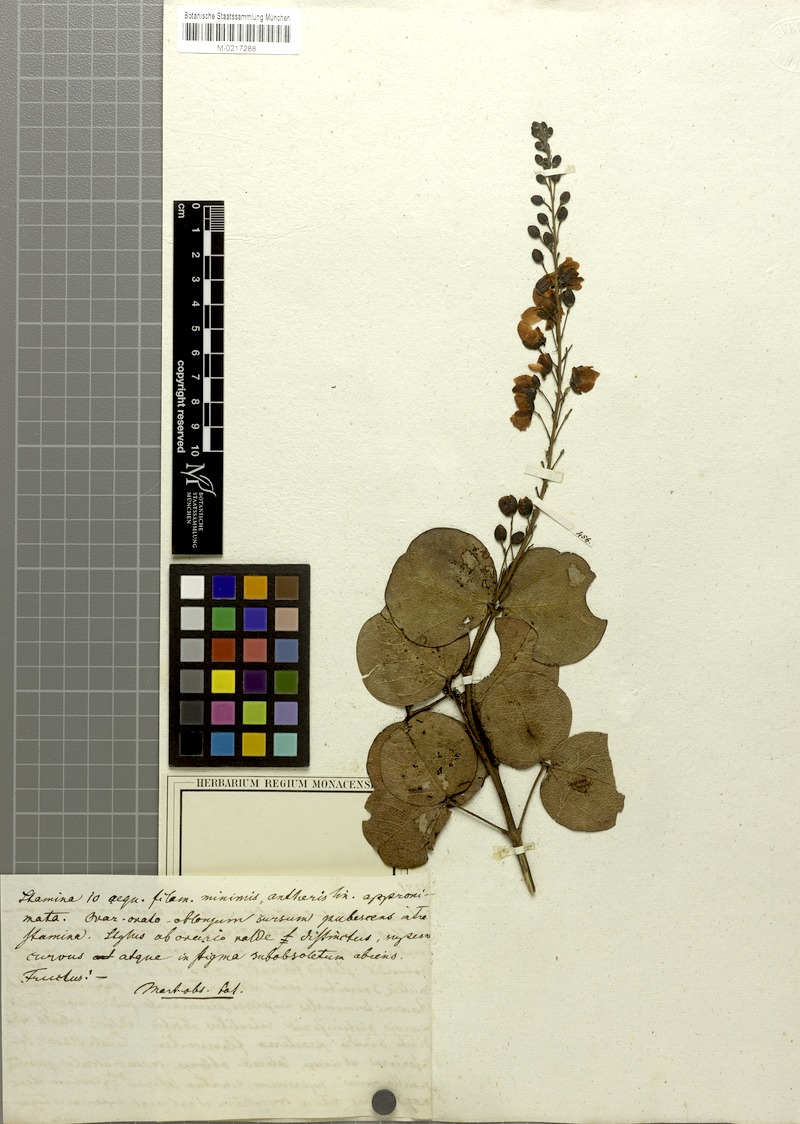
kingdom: Plantae
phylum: Tracheophyta
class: Magnoliopsida
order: Fabales
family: Fabaceae
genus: Chamaecrista
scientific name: Chamaecrista cotinifolia
